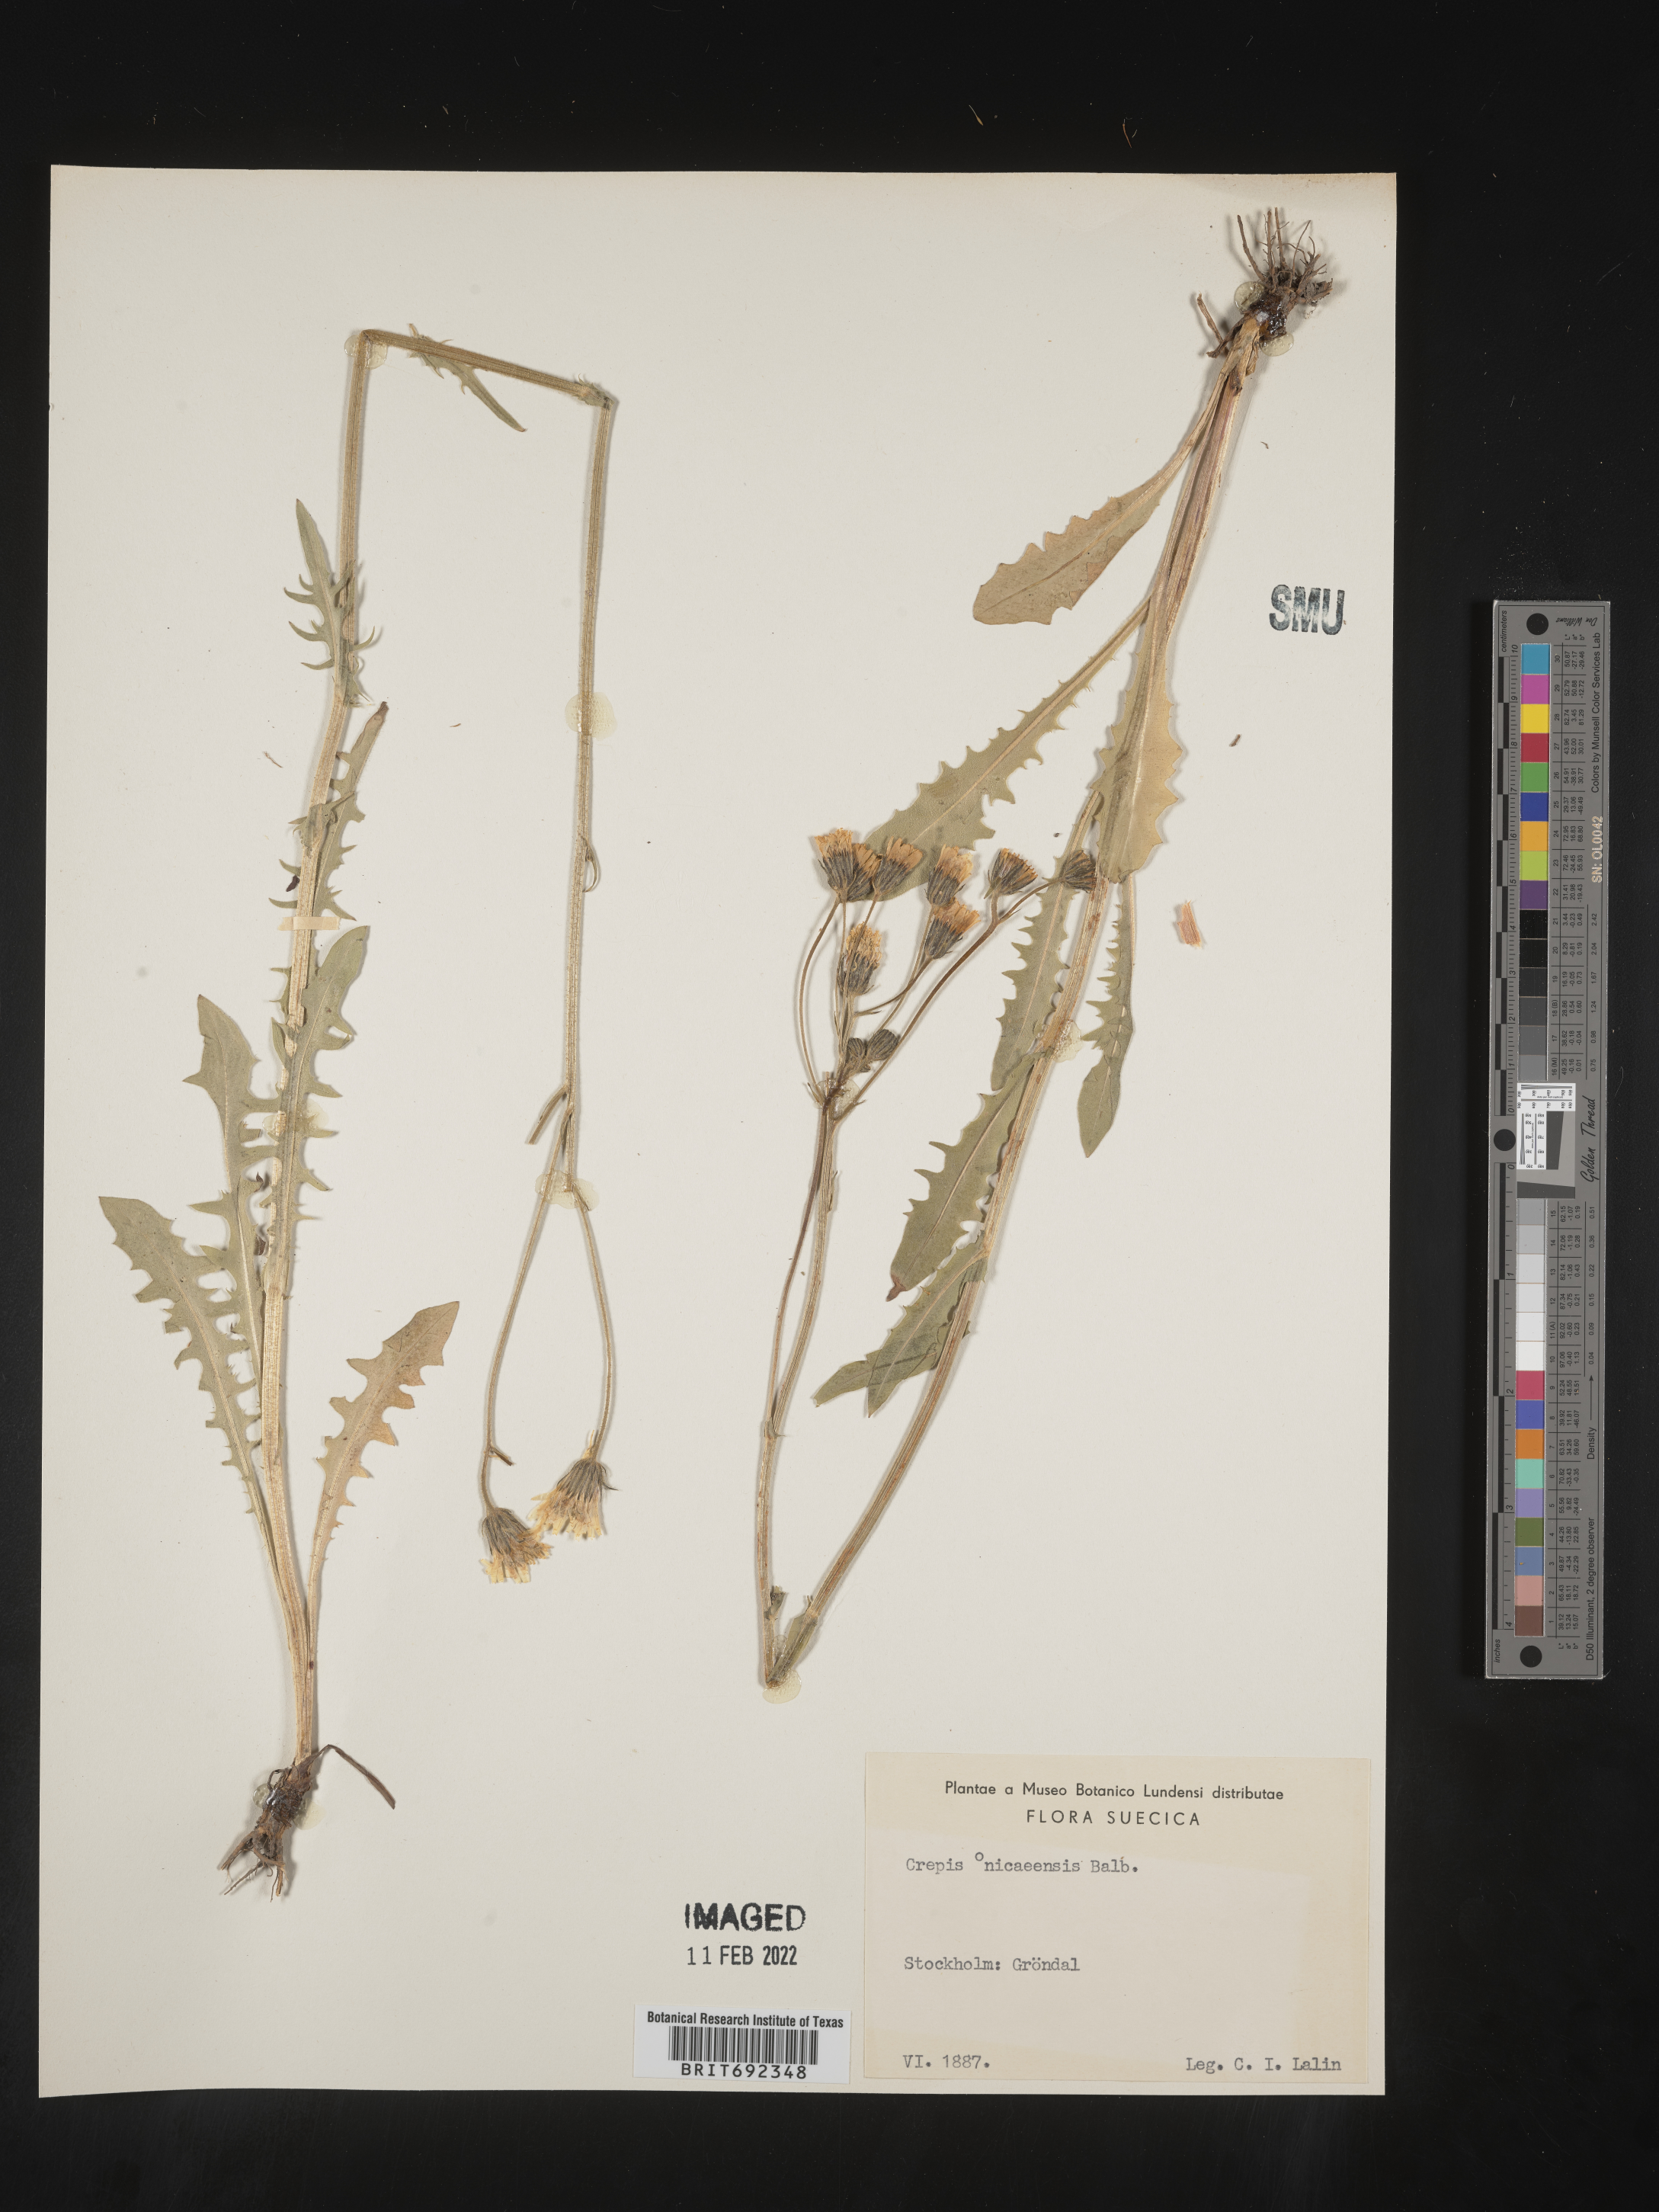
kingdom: Plantae
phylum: Tracheophyta
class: Magnoliopsida
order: Asterales
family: Asteraceae
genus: Crepis
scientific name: Crepis
